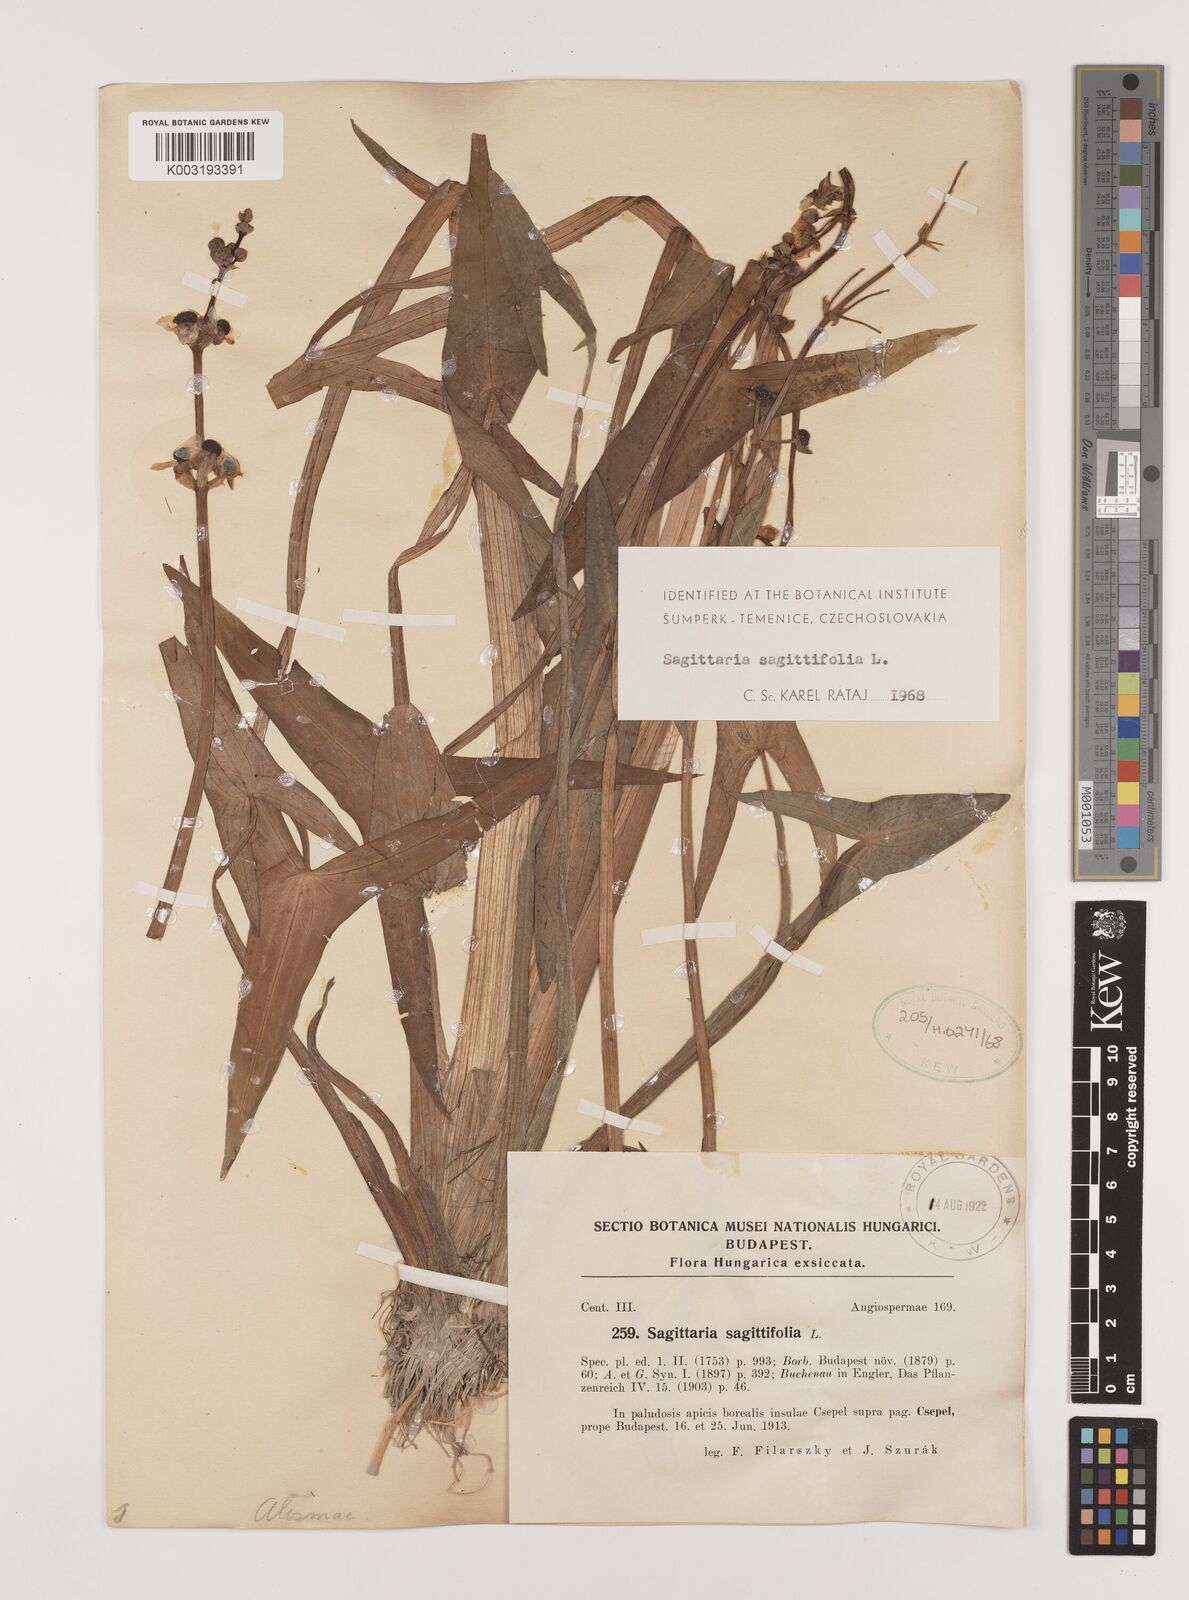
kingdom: Plantae
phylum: Tracheophyta
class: Liliopsida
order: Alismatales
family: Alismataceae
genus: Sagittaria
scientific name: Sagittaria sagittifolia
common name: Arrowhead
